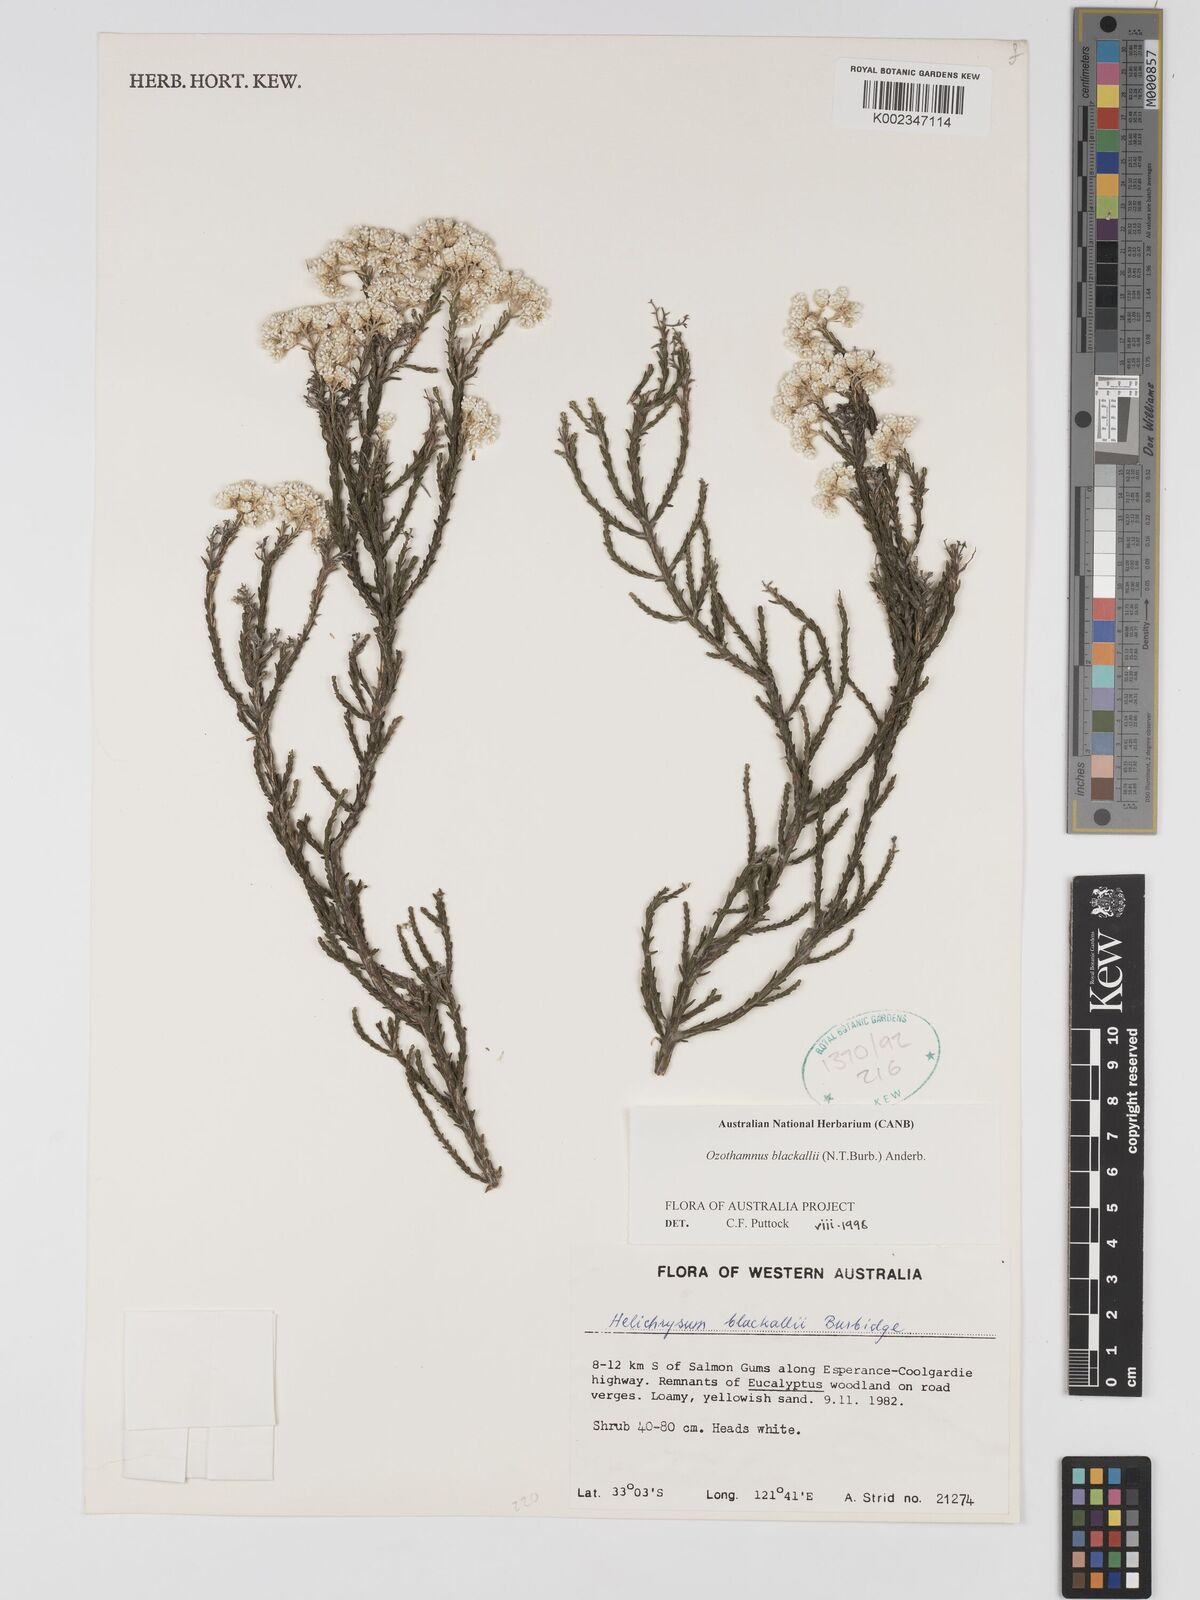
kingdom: Plantae
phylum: Tracheophyta
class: Magnoliopsida
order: Asterales
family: Asteraceae
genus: Ozothamnus
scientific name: Ozothamnus blackallii
